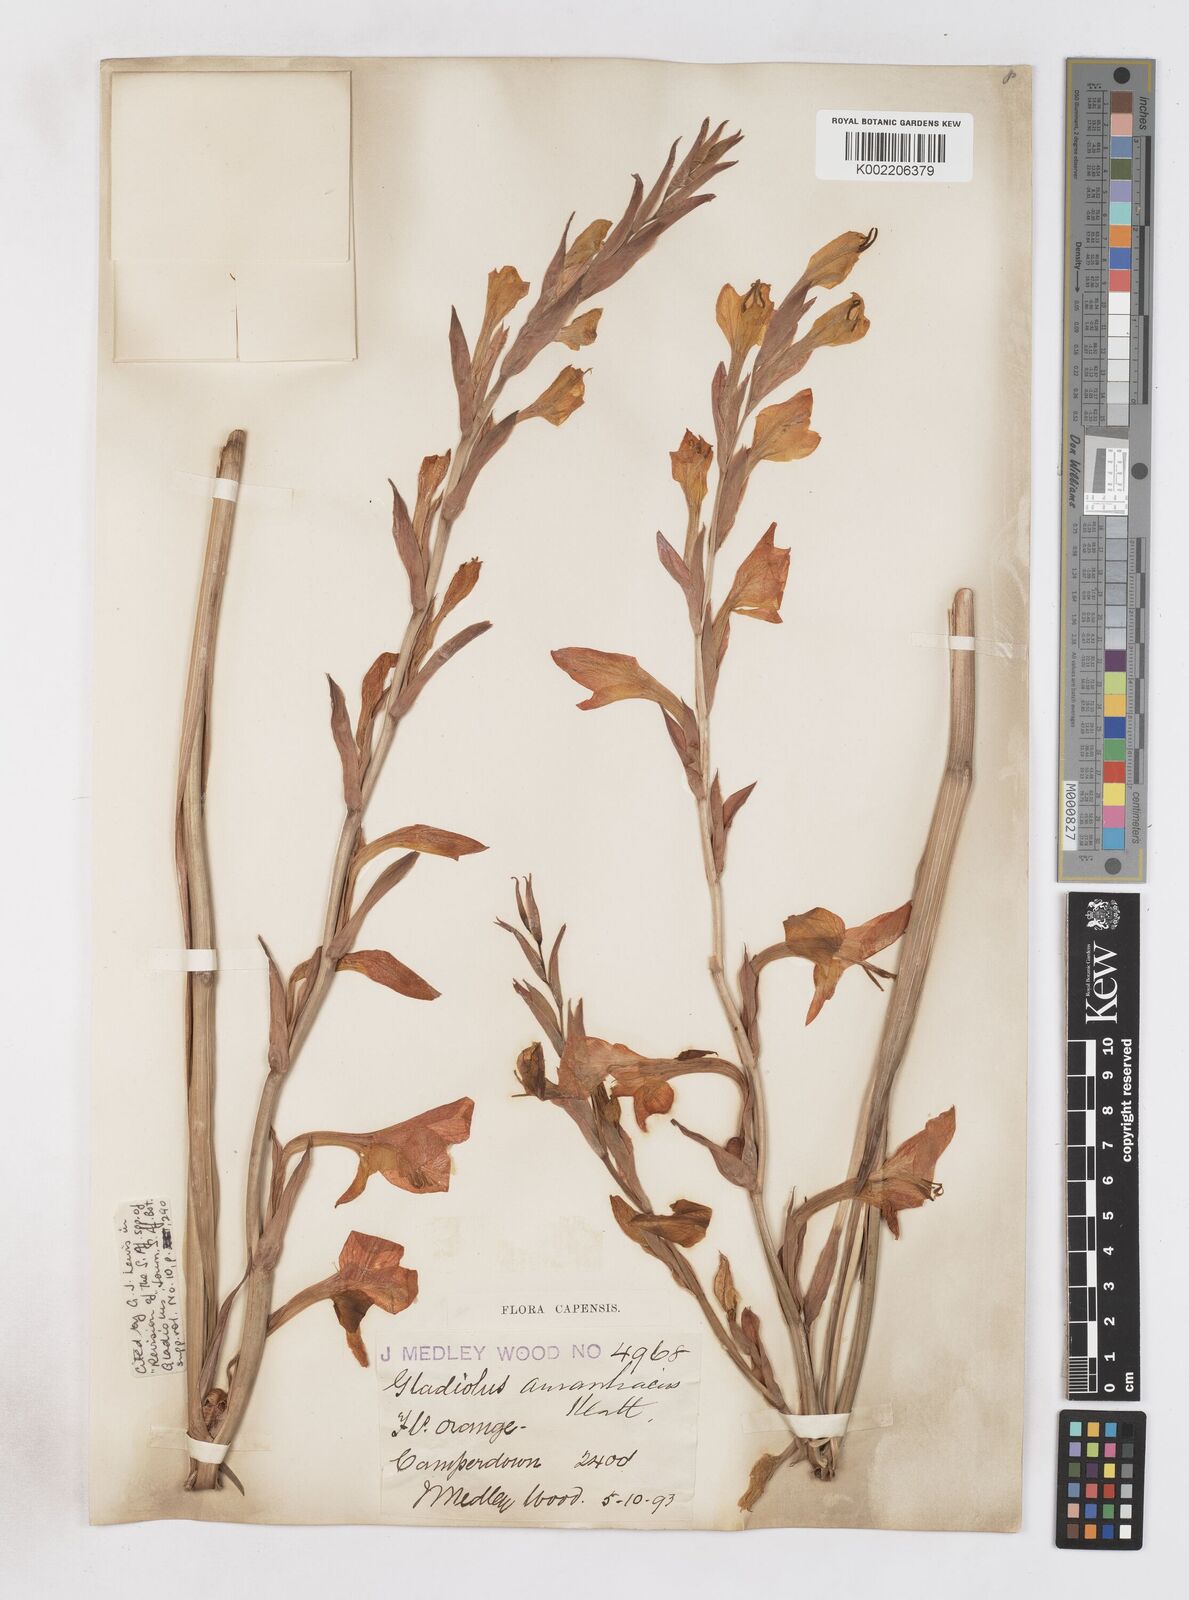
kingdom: Plantae
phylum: Tracheophyta
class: Liliopsida
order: Asparagales
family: Iridaceae
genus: Gladiolus
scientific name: Gladiolus aurantiacus
